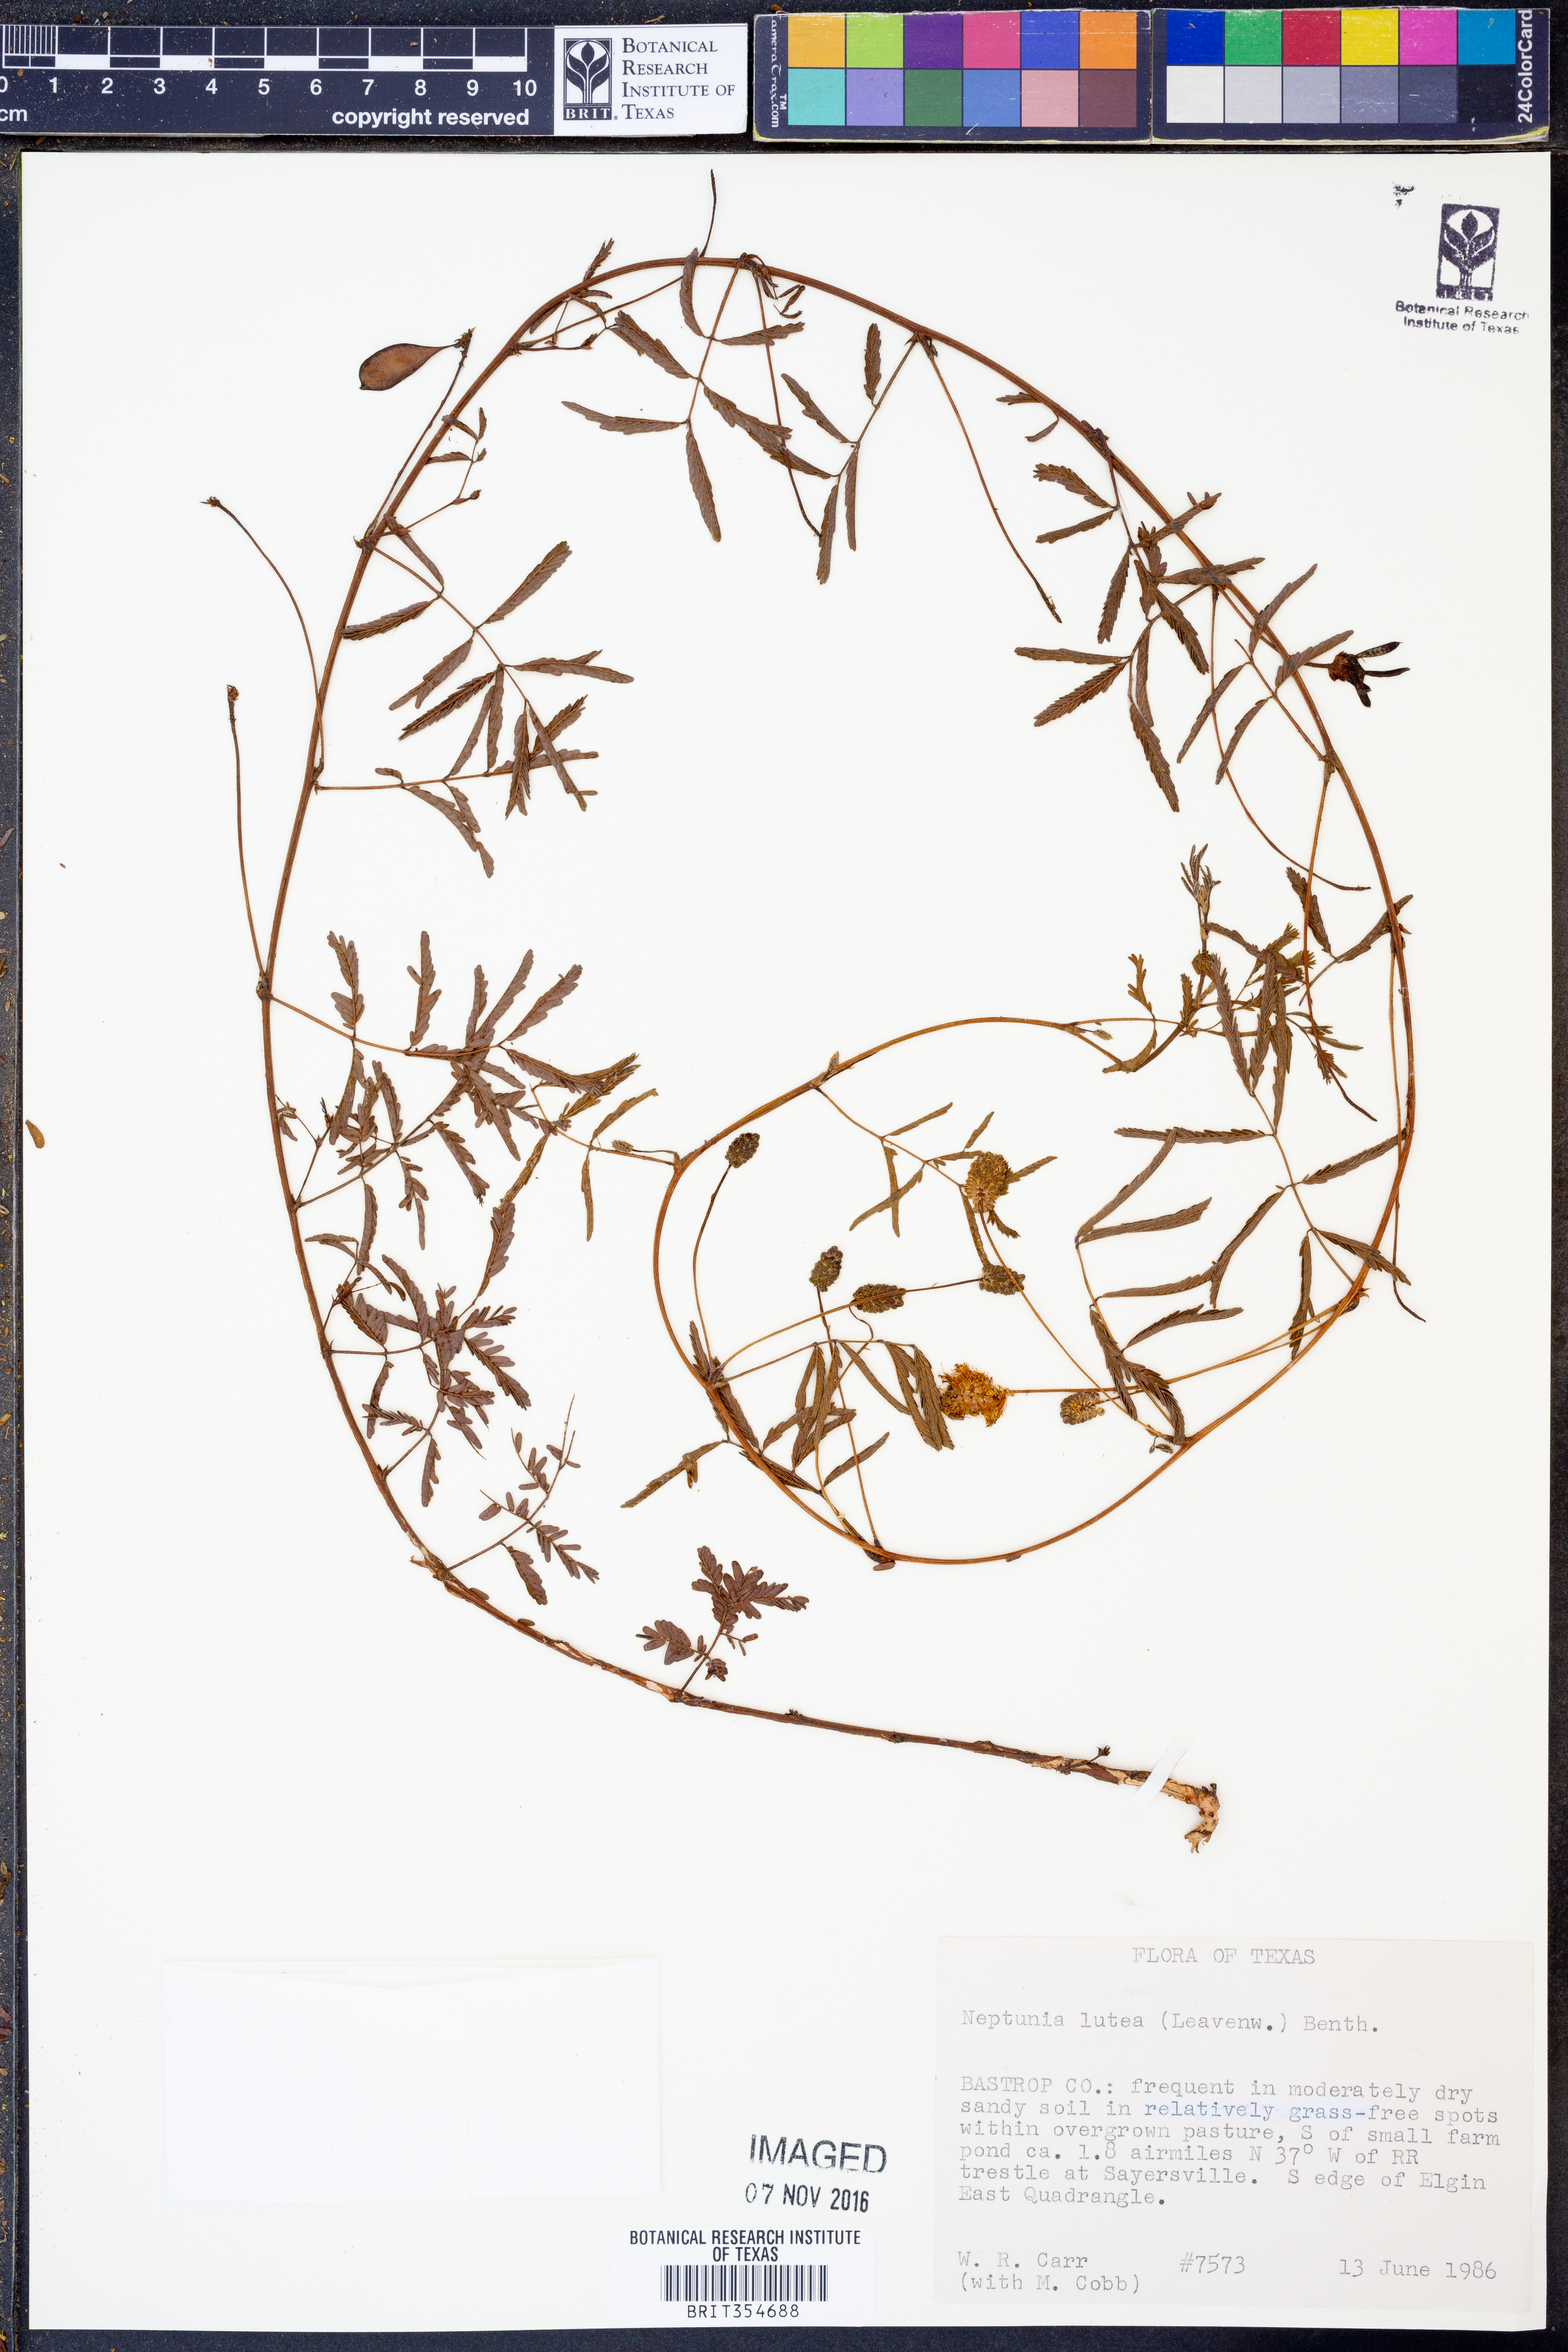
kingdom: Plantae
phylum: Tracheophyta
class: Magnoliopsida
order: Fabales
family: Fabaceae
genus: Neptunia
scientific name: Neptunia lutea
